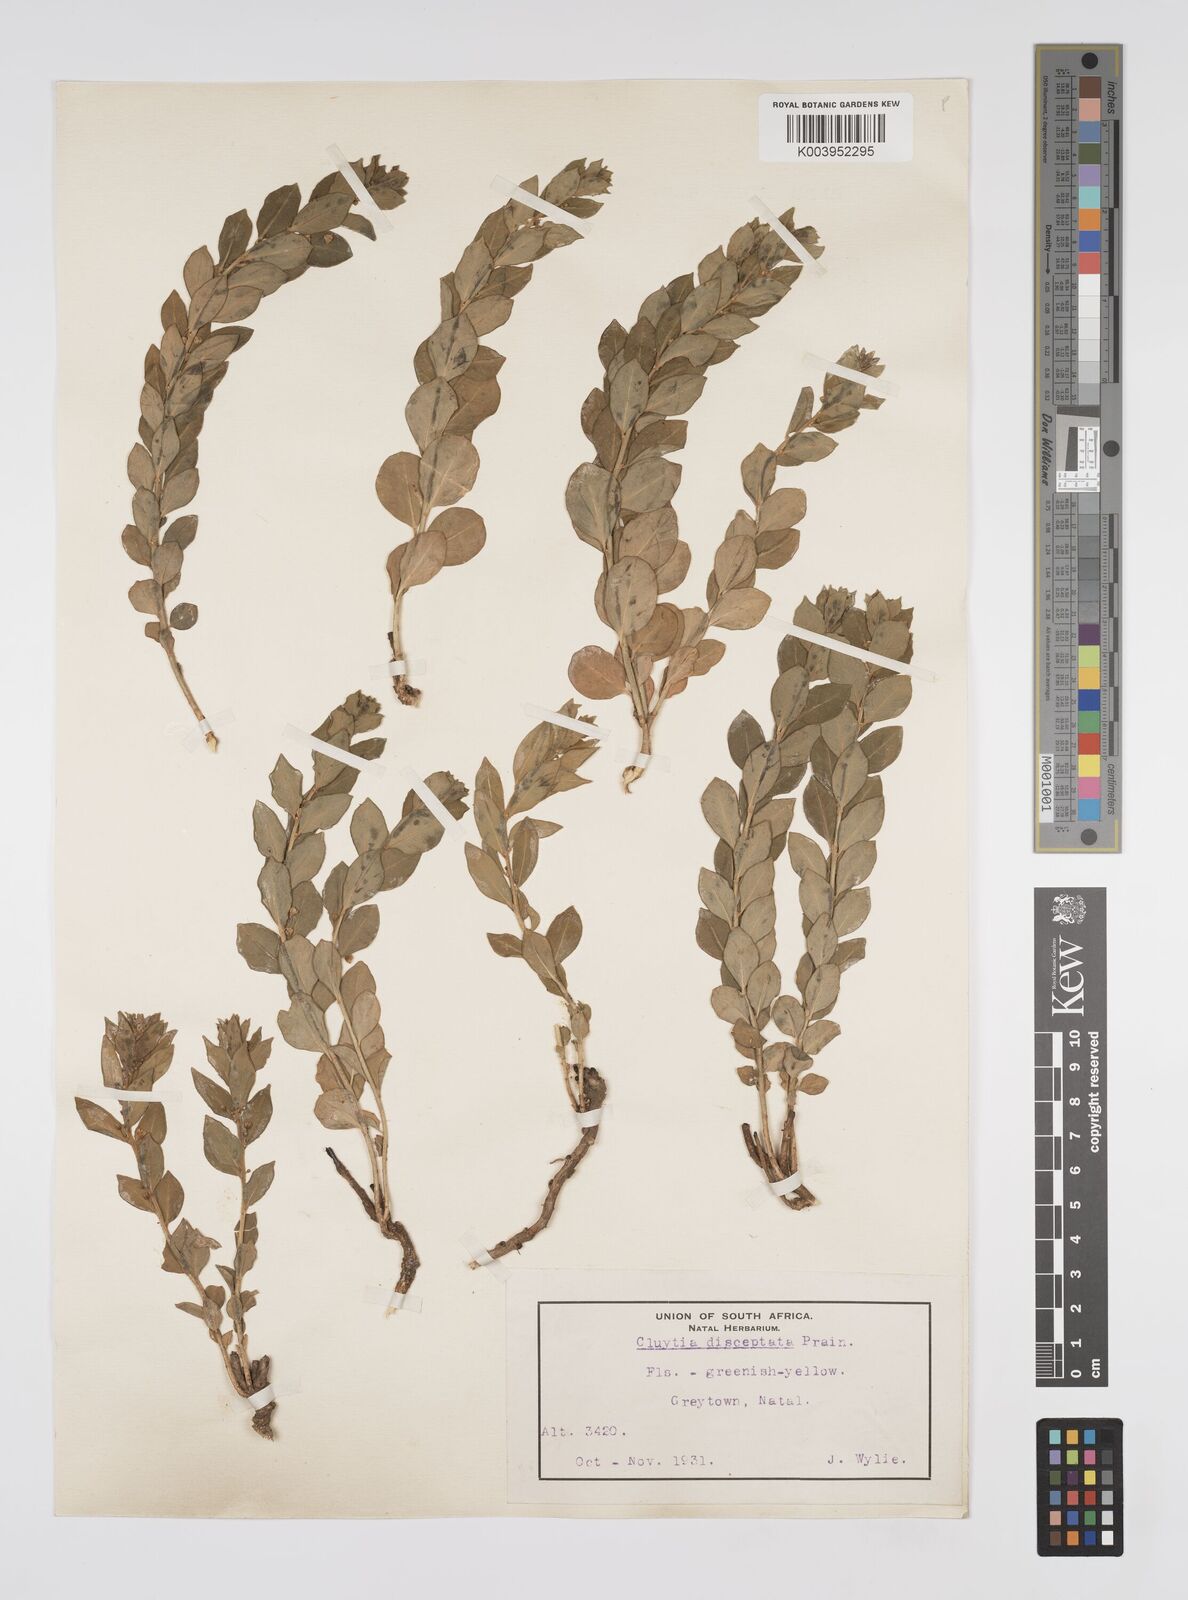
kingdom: Plantae
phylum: Tracheophyta
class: Magnoliopsida
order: Malpighiales
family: Peraceae
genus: Clutia
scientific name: Clutia disceptata
